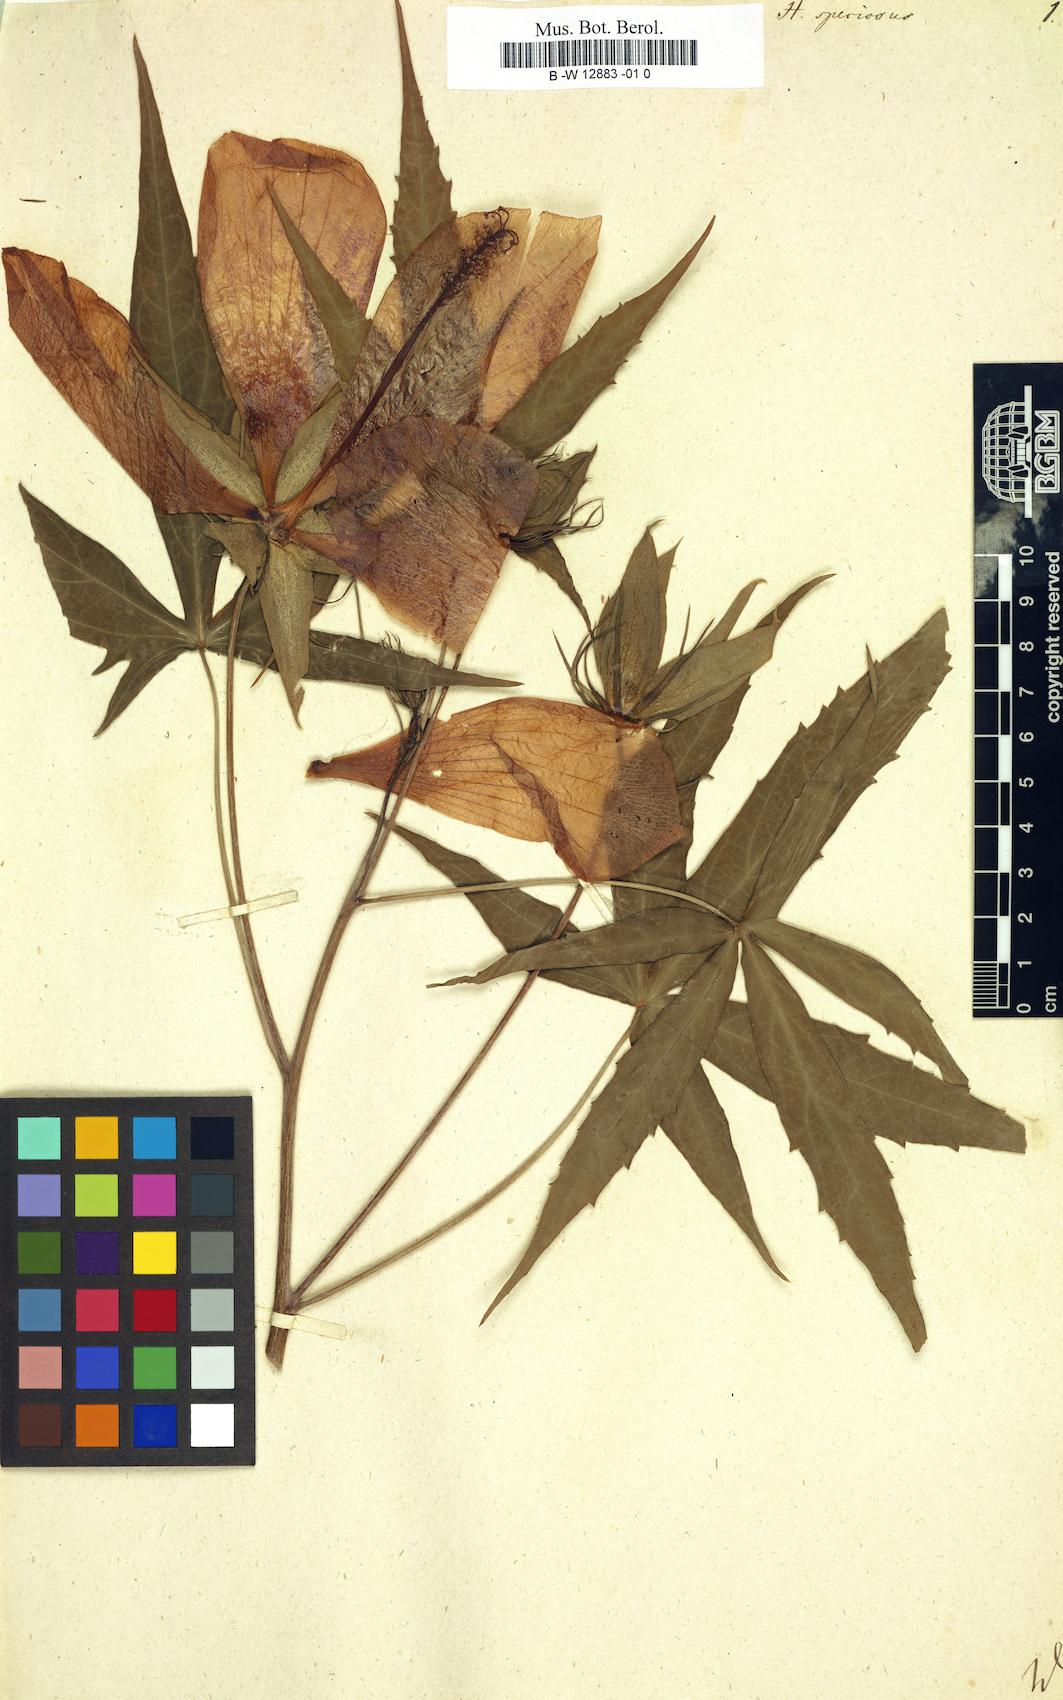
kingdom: Plantae
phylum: Tracheophyta
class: Magnoliopsida
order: Malvales
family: Malvaceae
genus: Malvaviscus
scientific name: Malvaviscus arboreus
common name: Wax mallow
